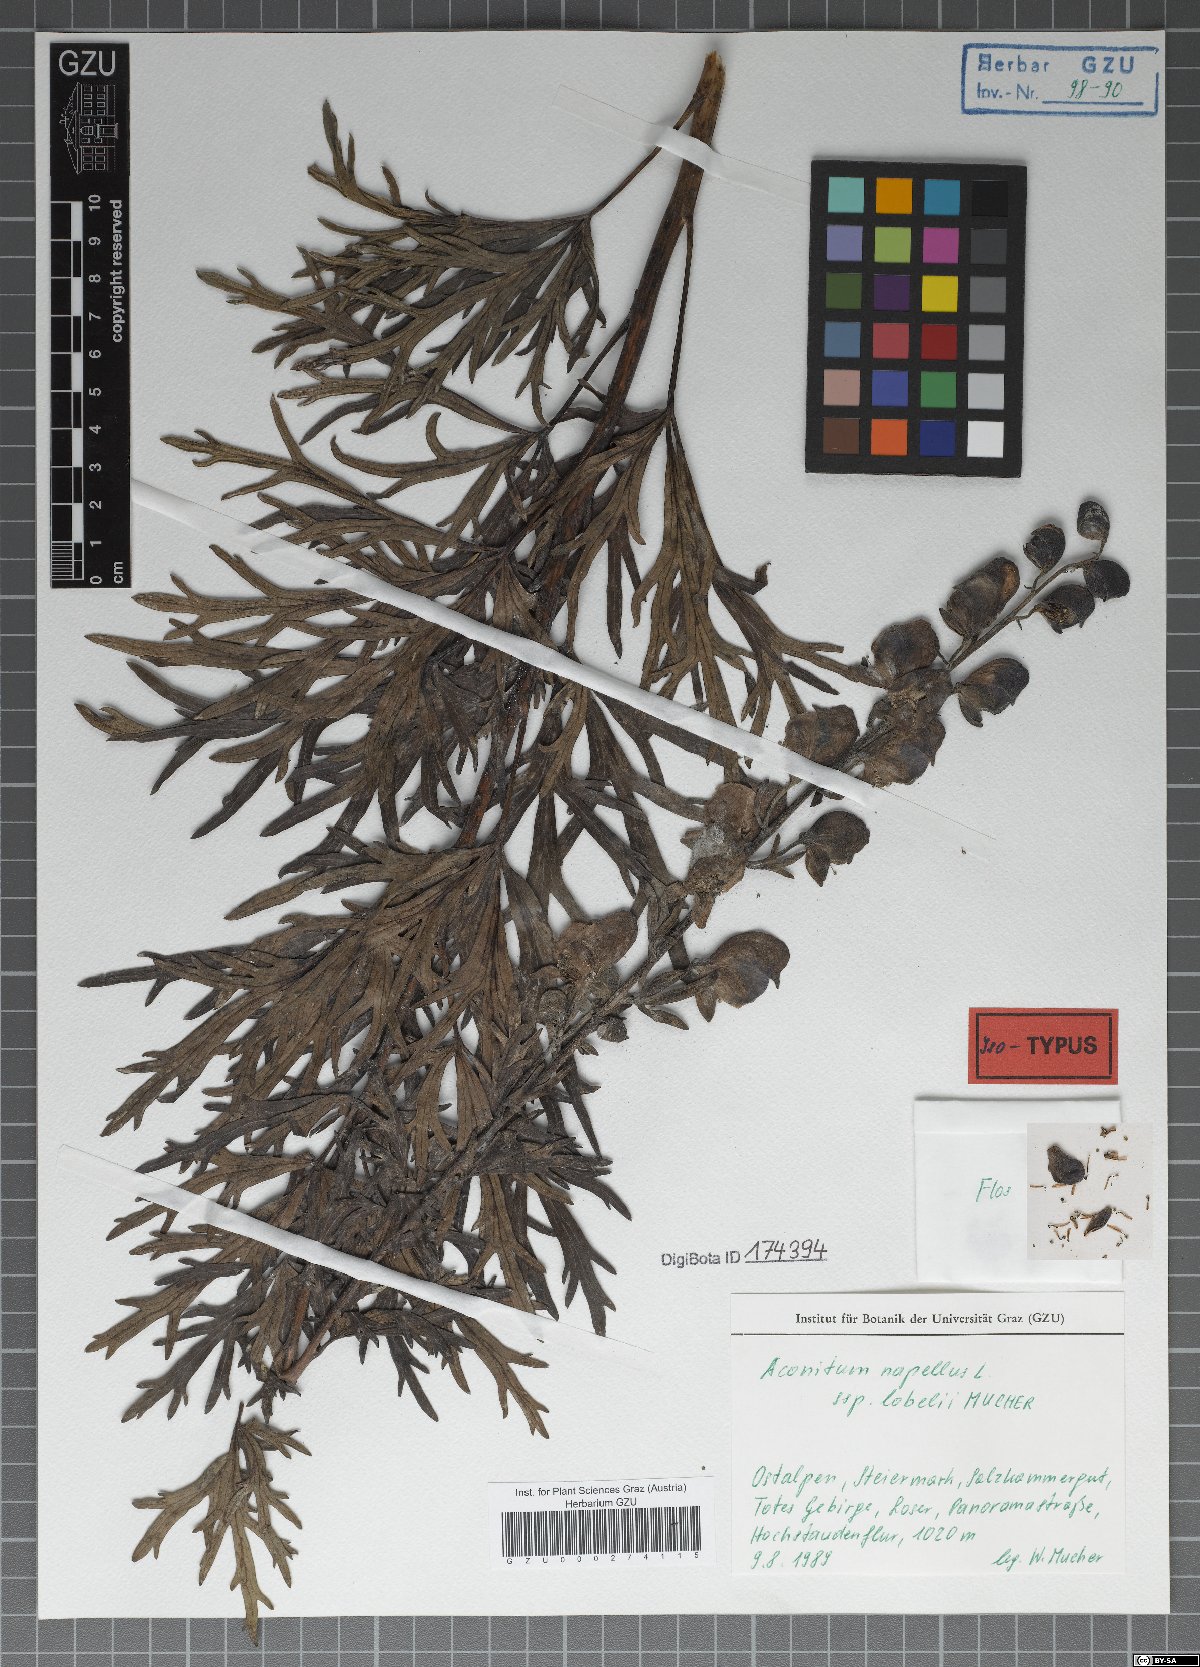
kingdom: Plantae
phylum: Tracheophyta
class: Magnoliopsida
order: Ranunculales
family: Ranunculaceae
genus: Aconitum
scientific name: Aconitum napellus
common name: Garden monkshood
